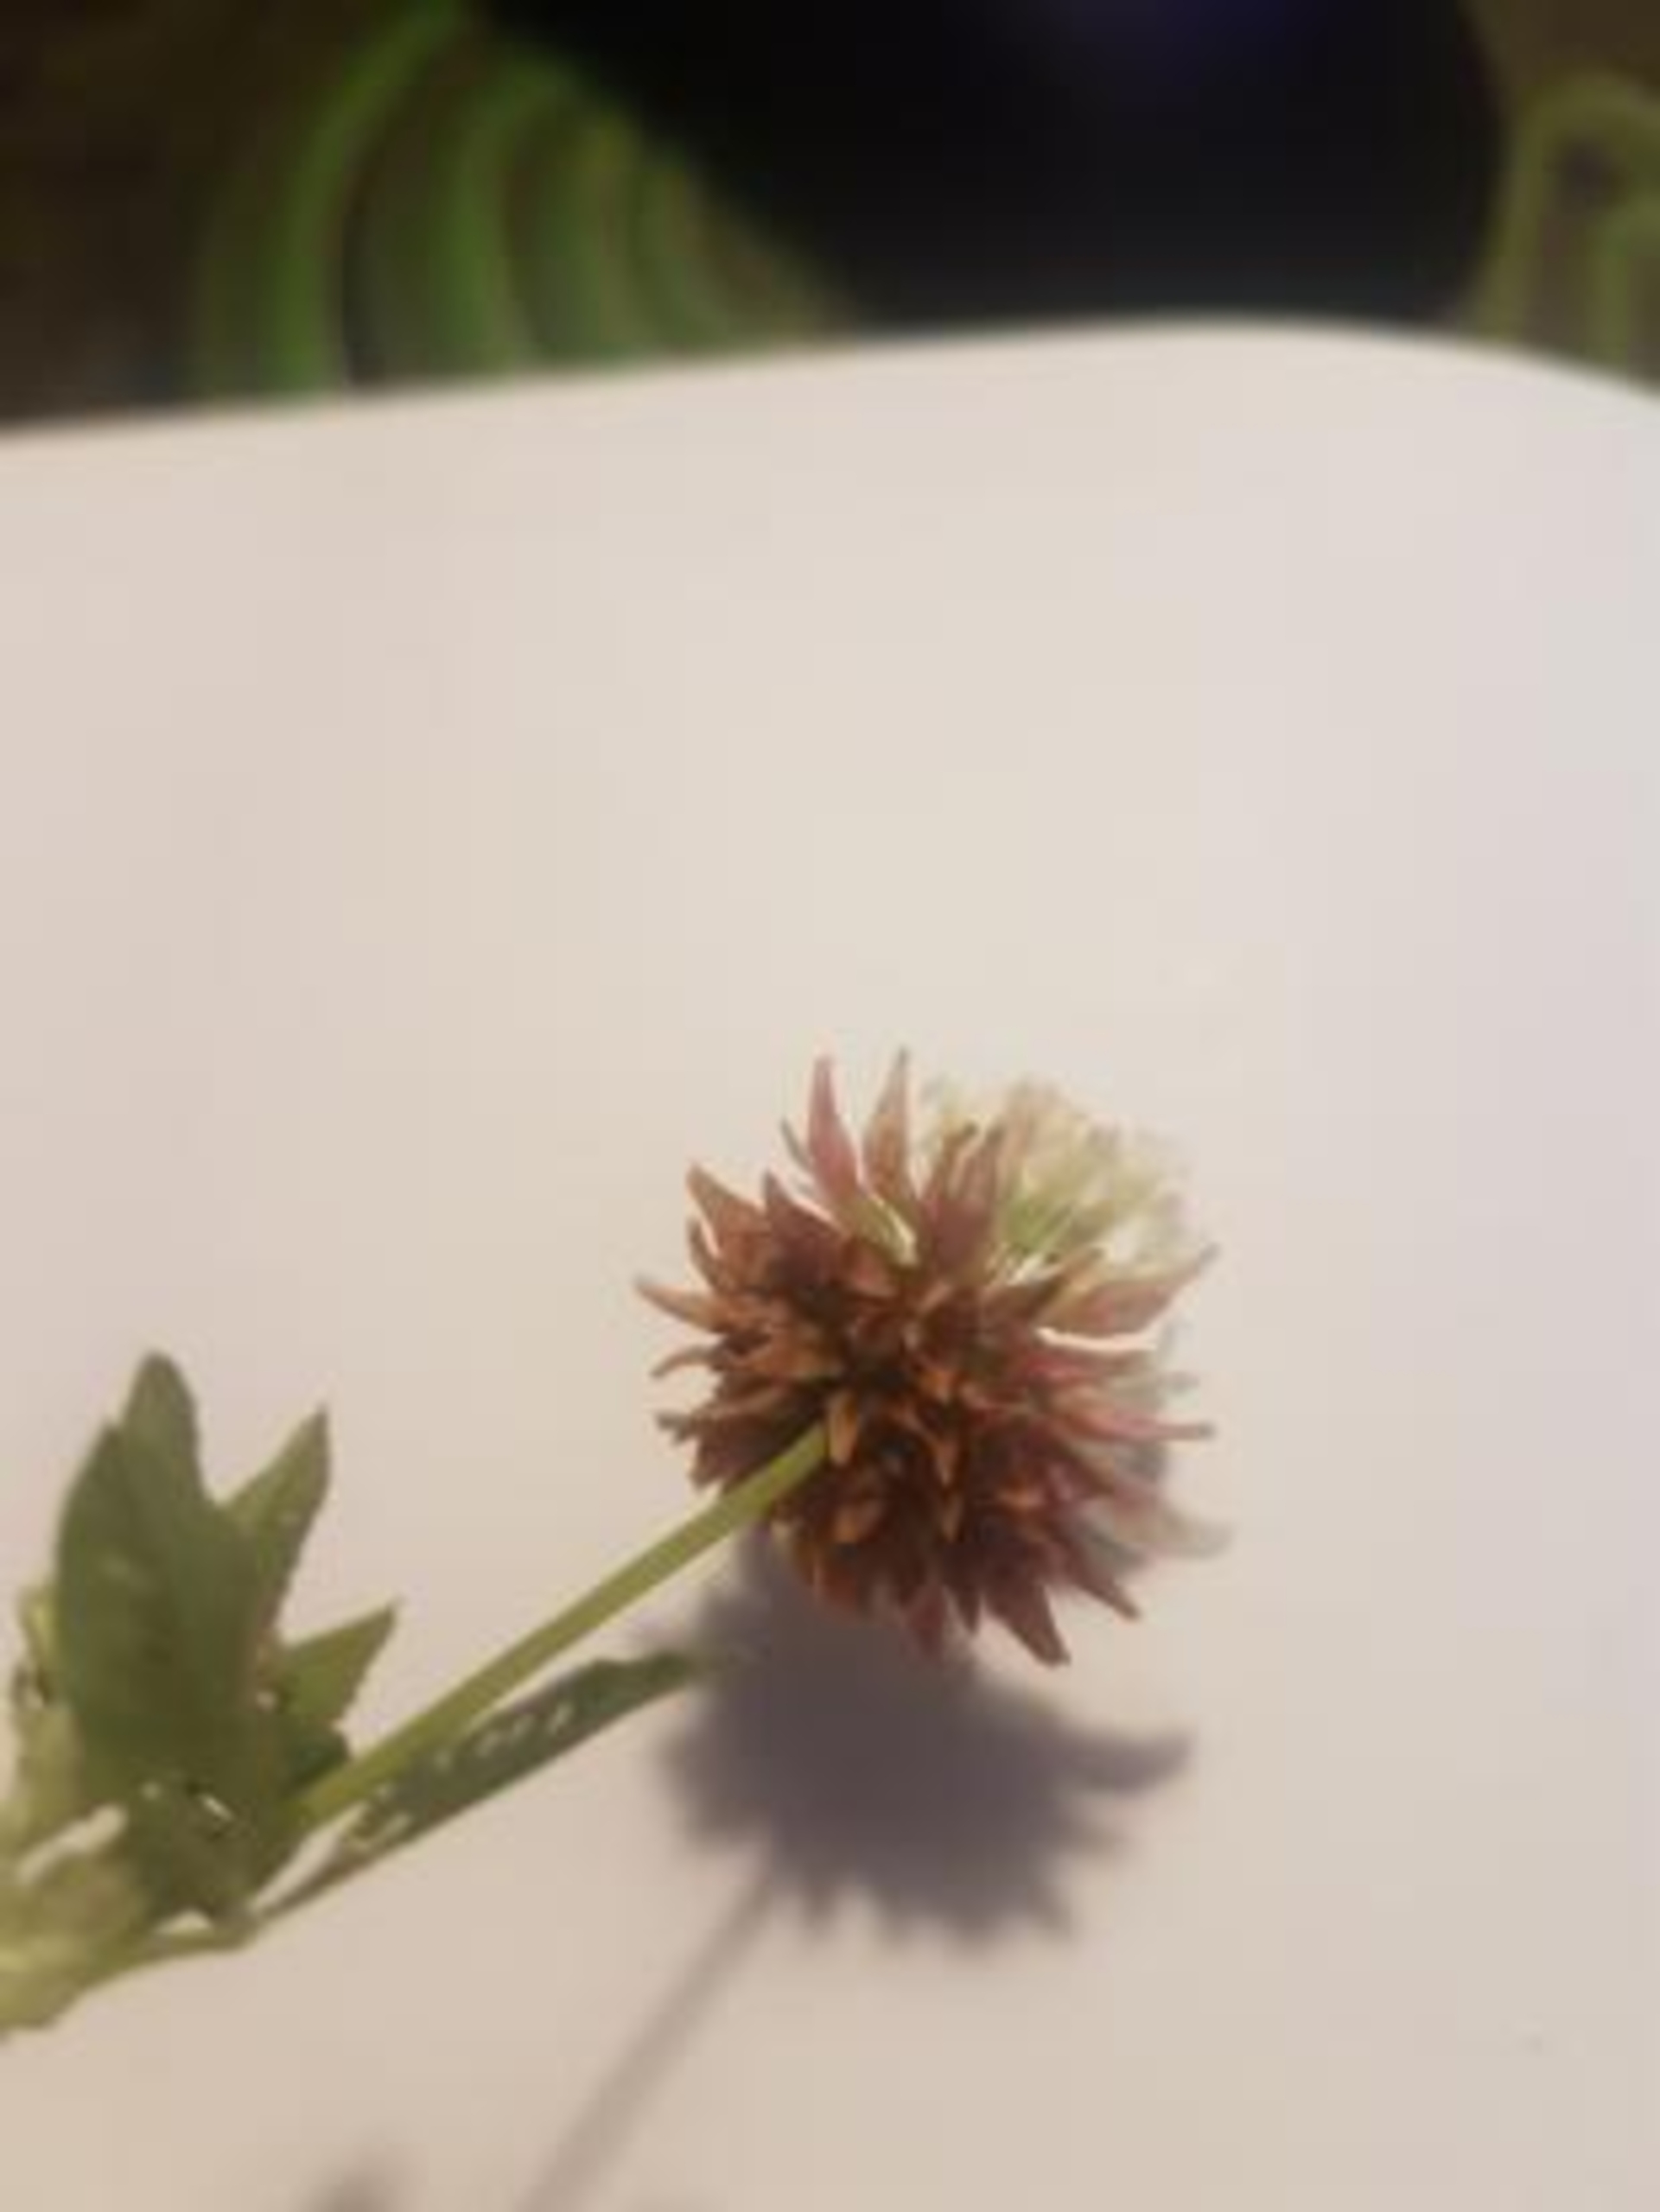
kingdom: Plantae
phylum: Tracheophyta
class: Magnoliopsida
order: Fabales
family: Fabaceae
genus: Trifolium
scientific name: Trifolium hybridum
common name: Alsike-kløver
